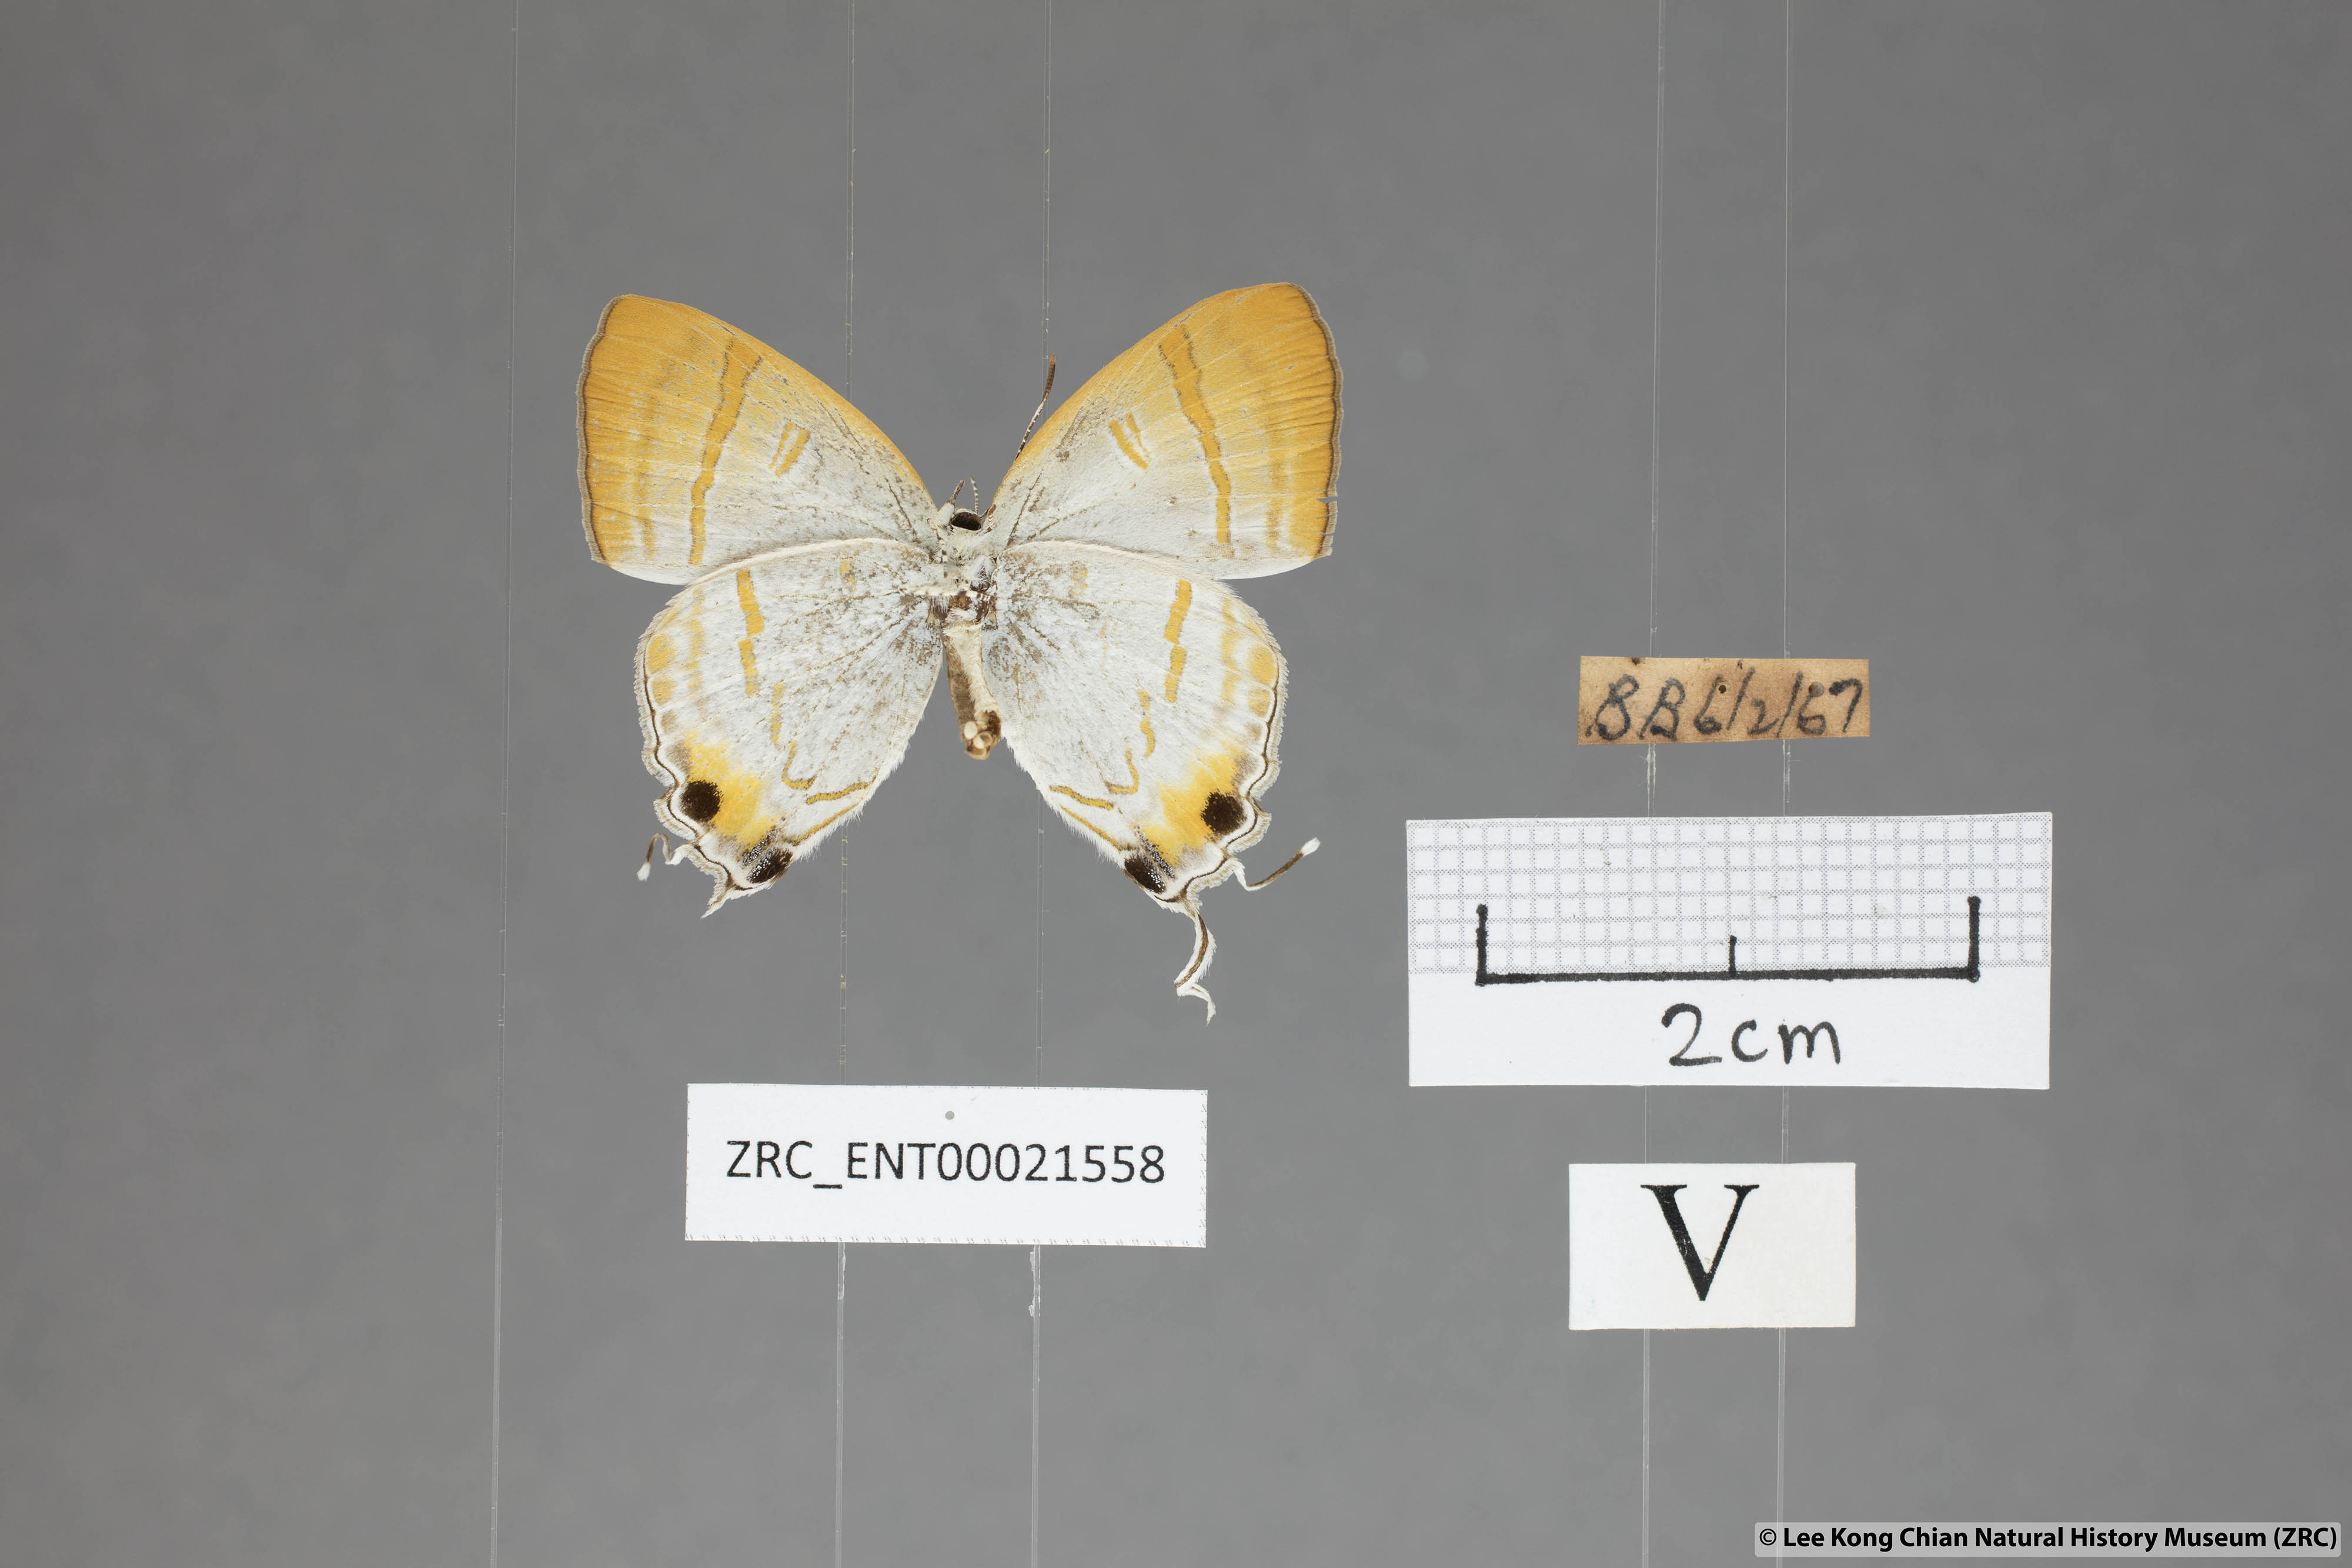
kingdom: Animalia
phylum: Arthropoda
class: Insecta
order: Lepidoptera
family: Lycaenidae
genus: Hypolycaena
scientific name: Hypolycaena thecloides
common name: Dark tit
